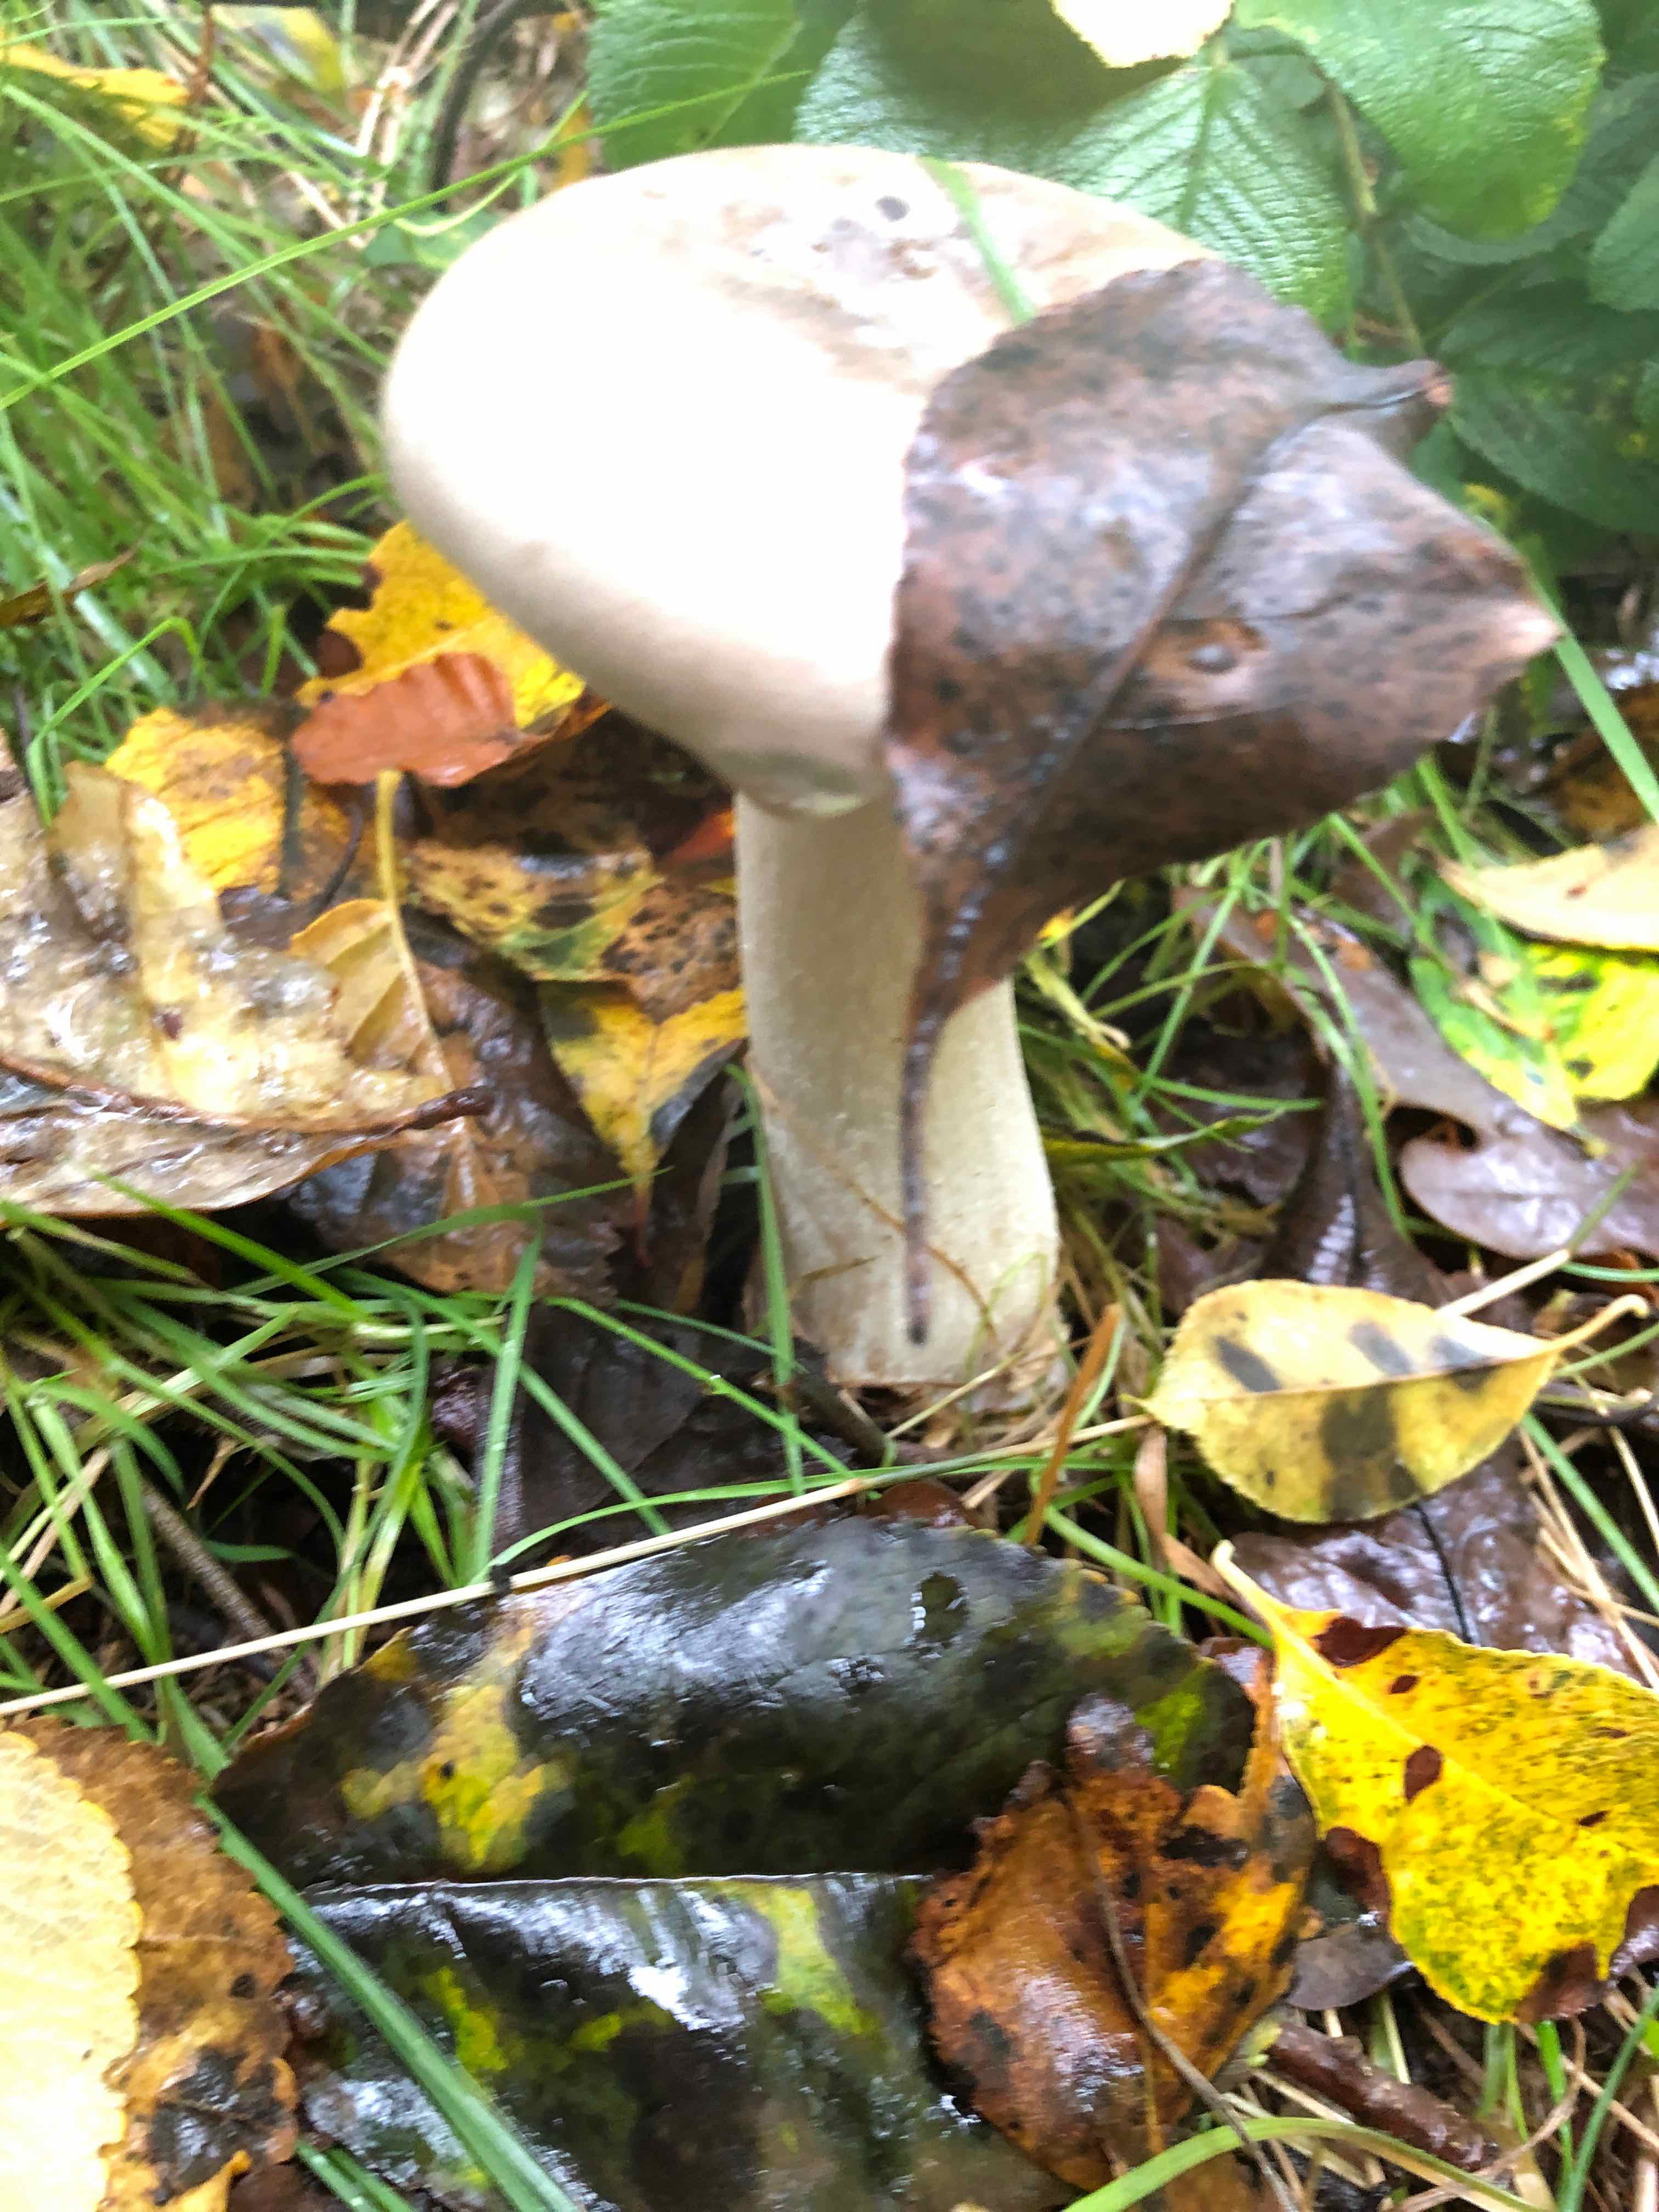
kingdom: Fungi
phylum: Basidiomycota
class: Agaricomycetes
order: Agaricales
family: Tricholomataceae
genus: Clitocybe
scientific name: Clitocybe nebularis
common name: tåge-tragthat
